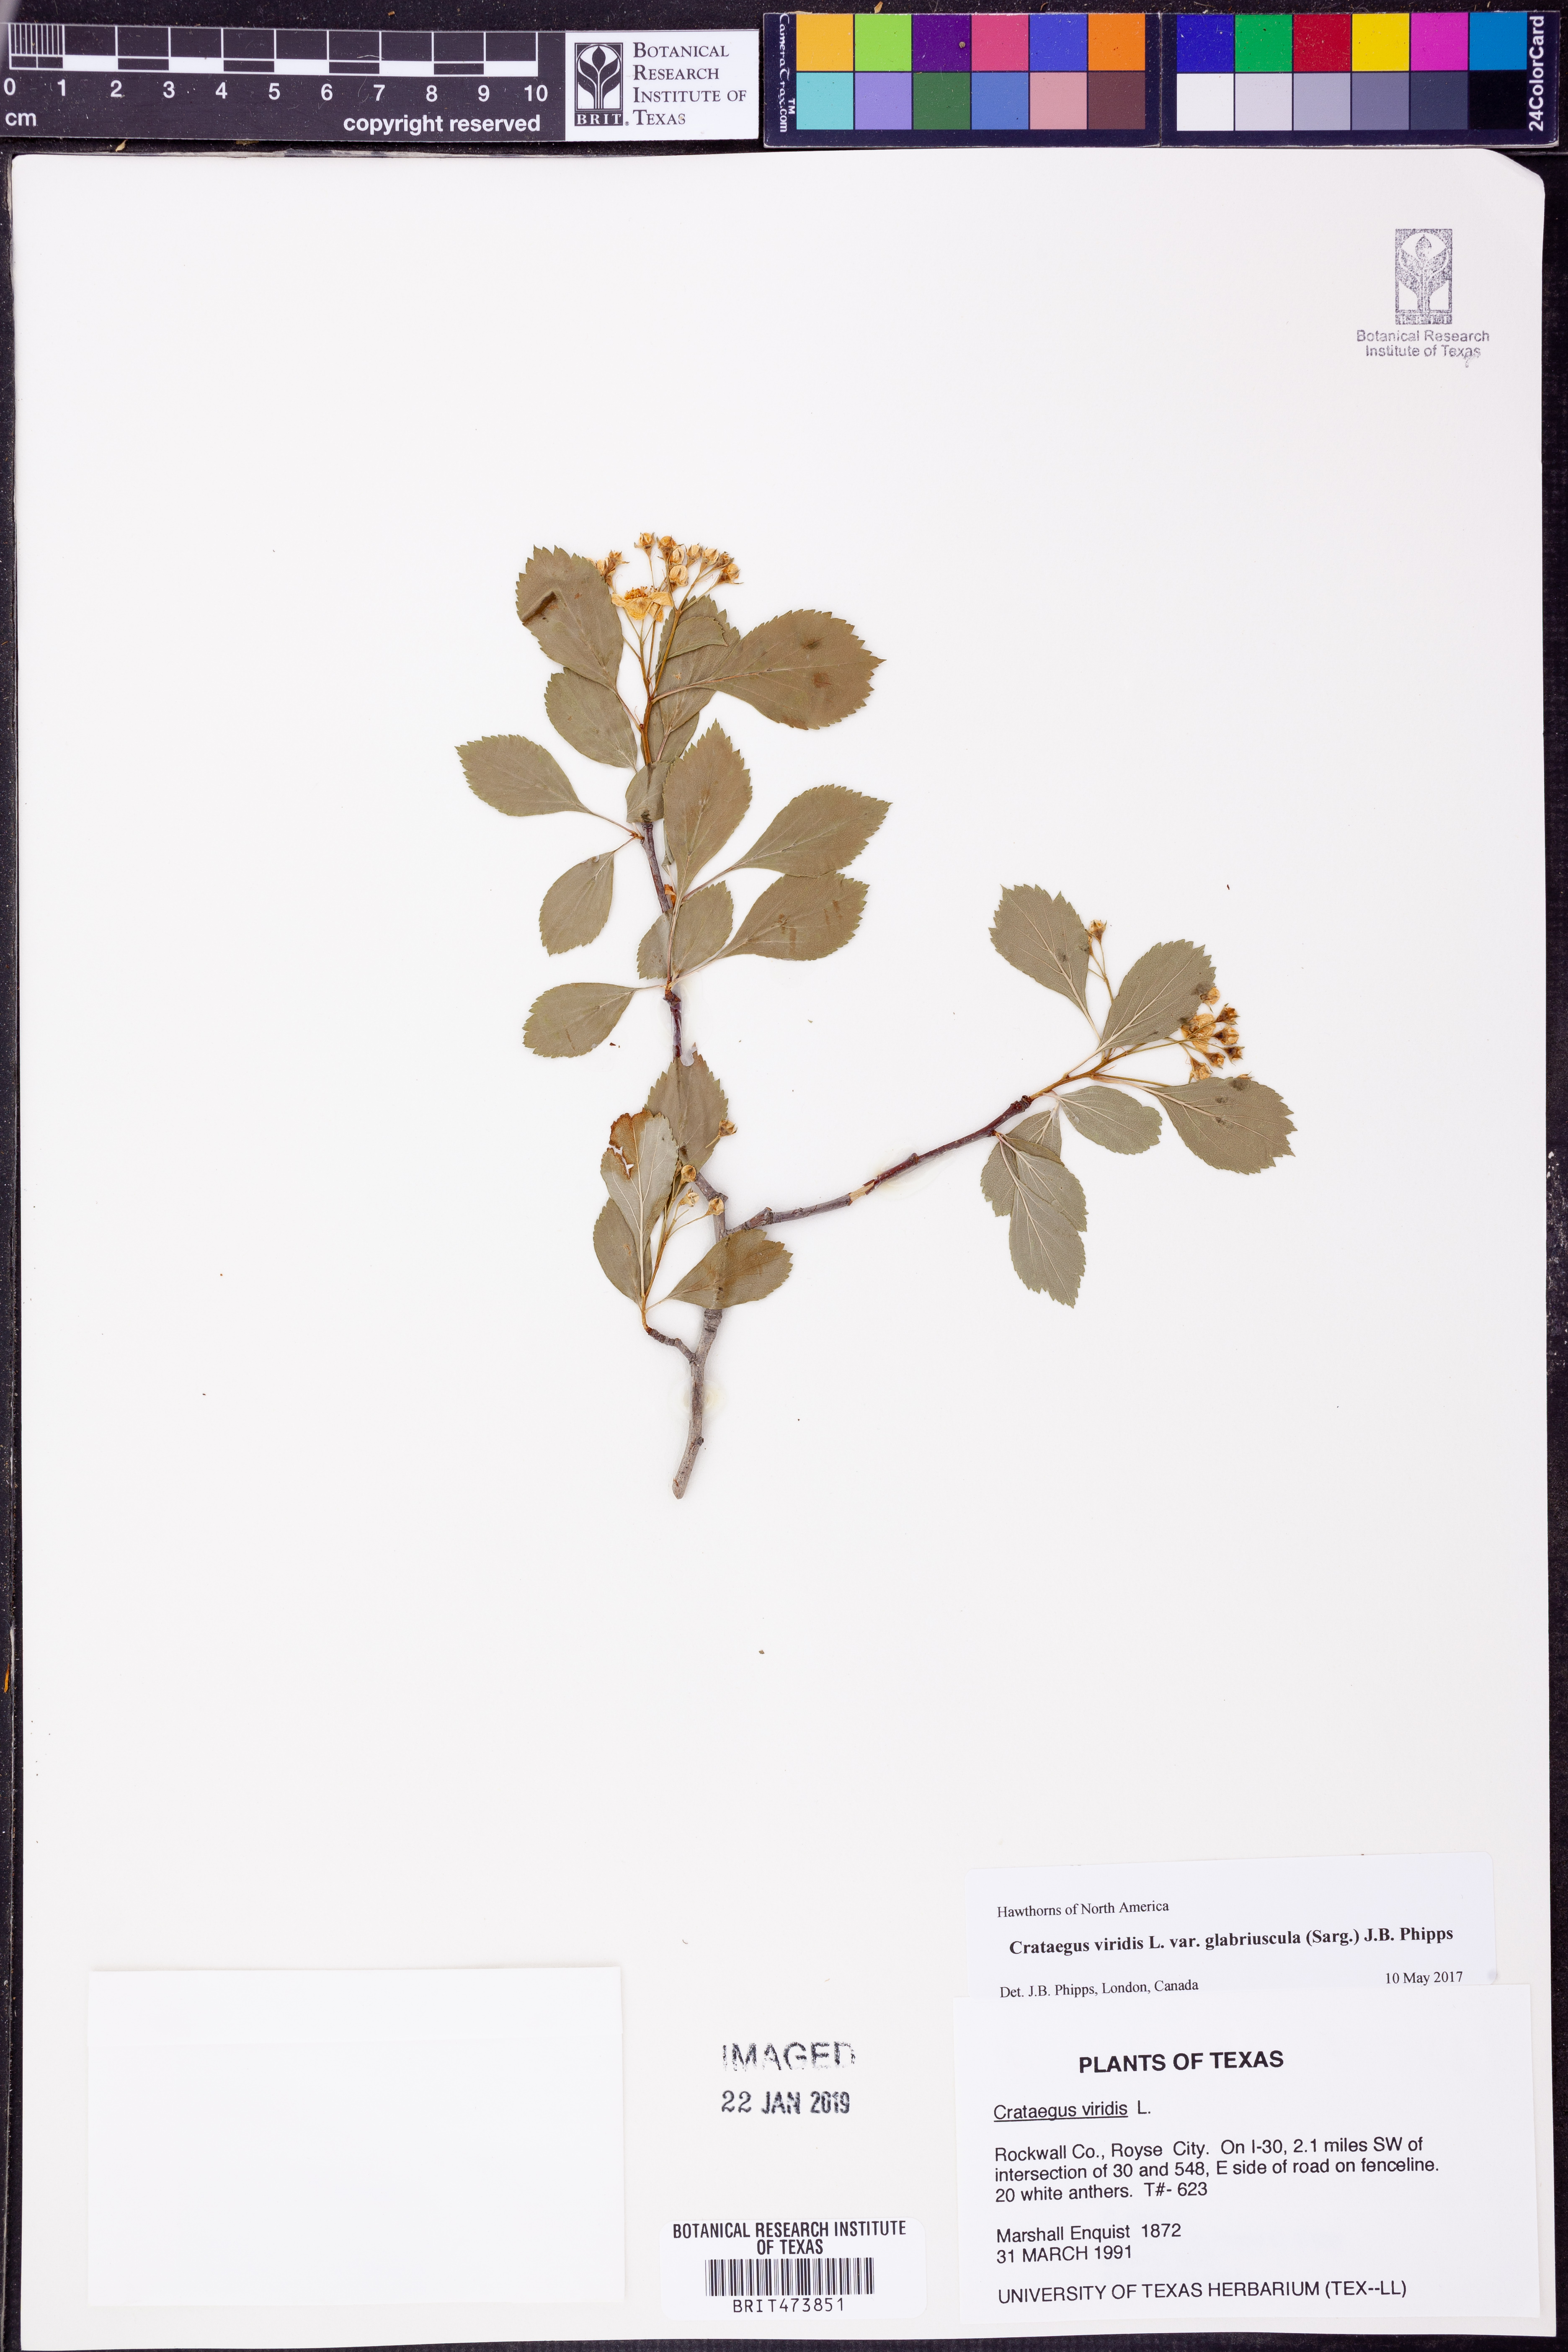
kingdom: Plantae
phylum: Tracheophyta
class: Magnoliopsida
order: Rosales
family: Rosaceae
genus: Crataegus
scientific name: Crataegus viridis
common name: Southernthorn
